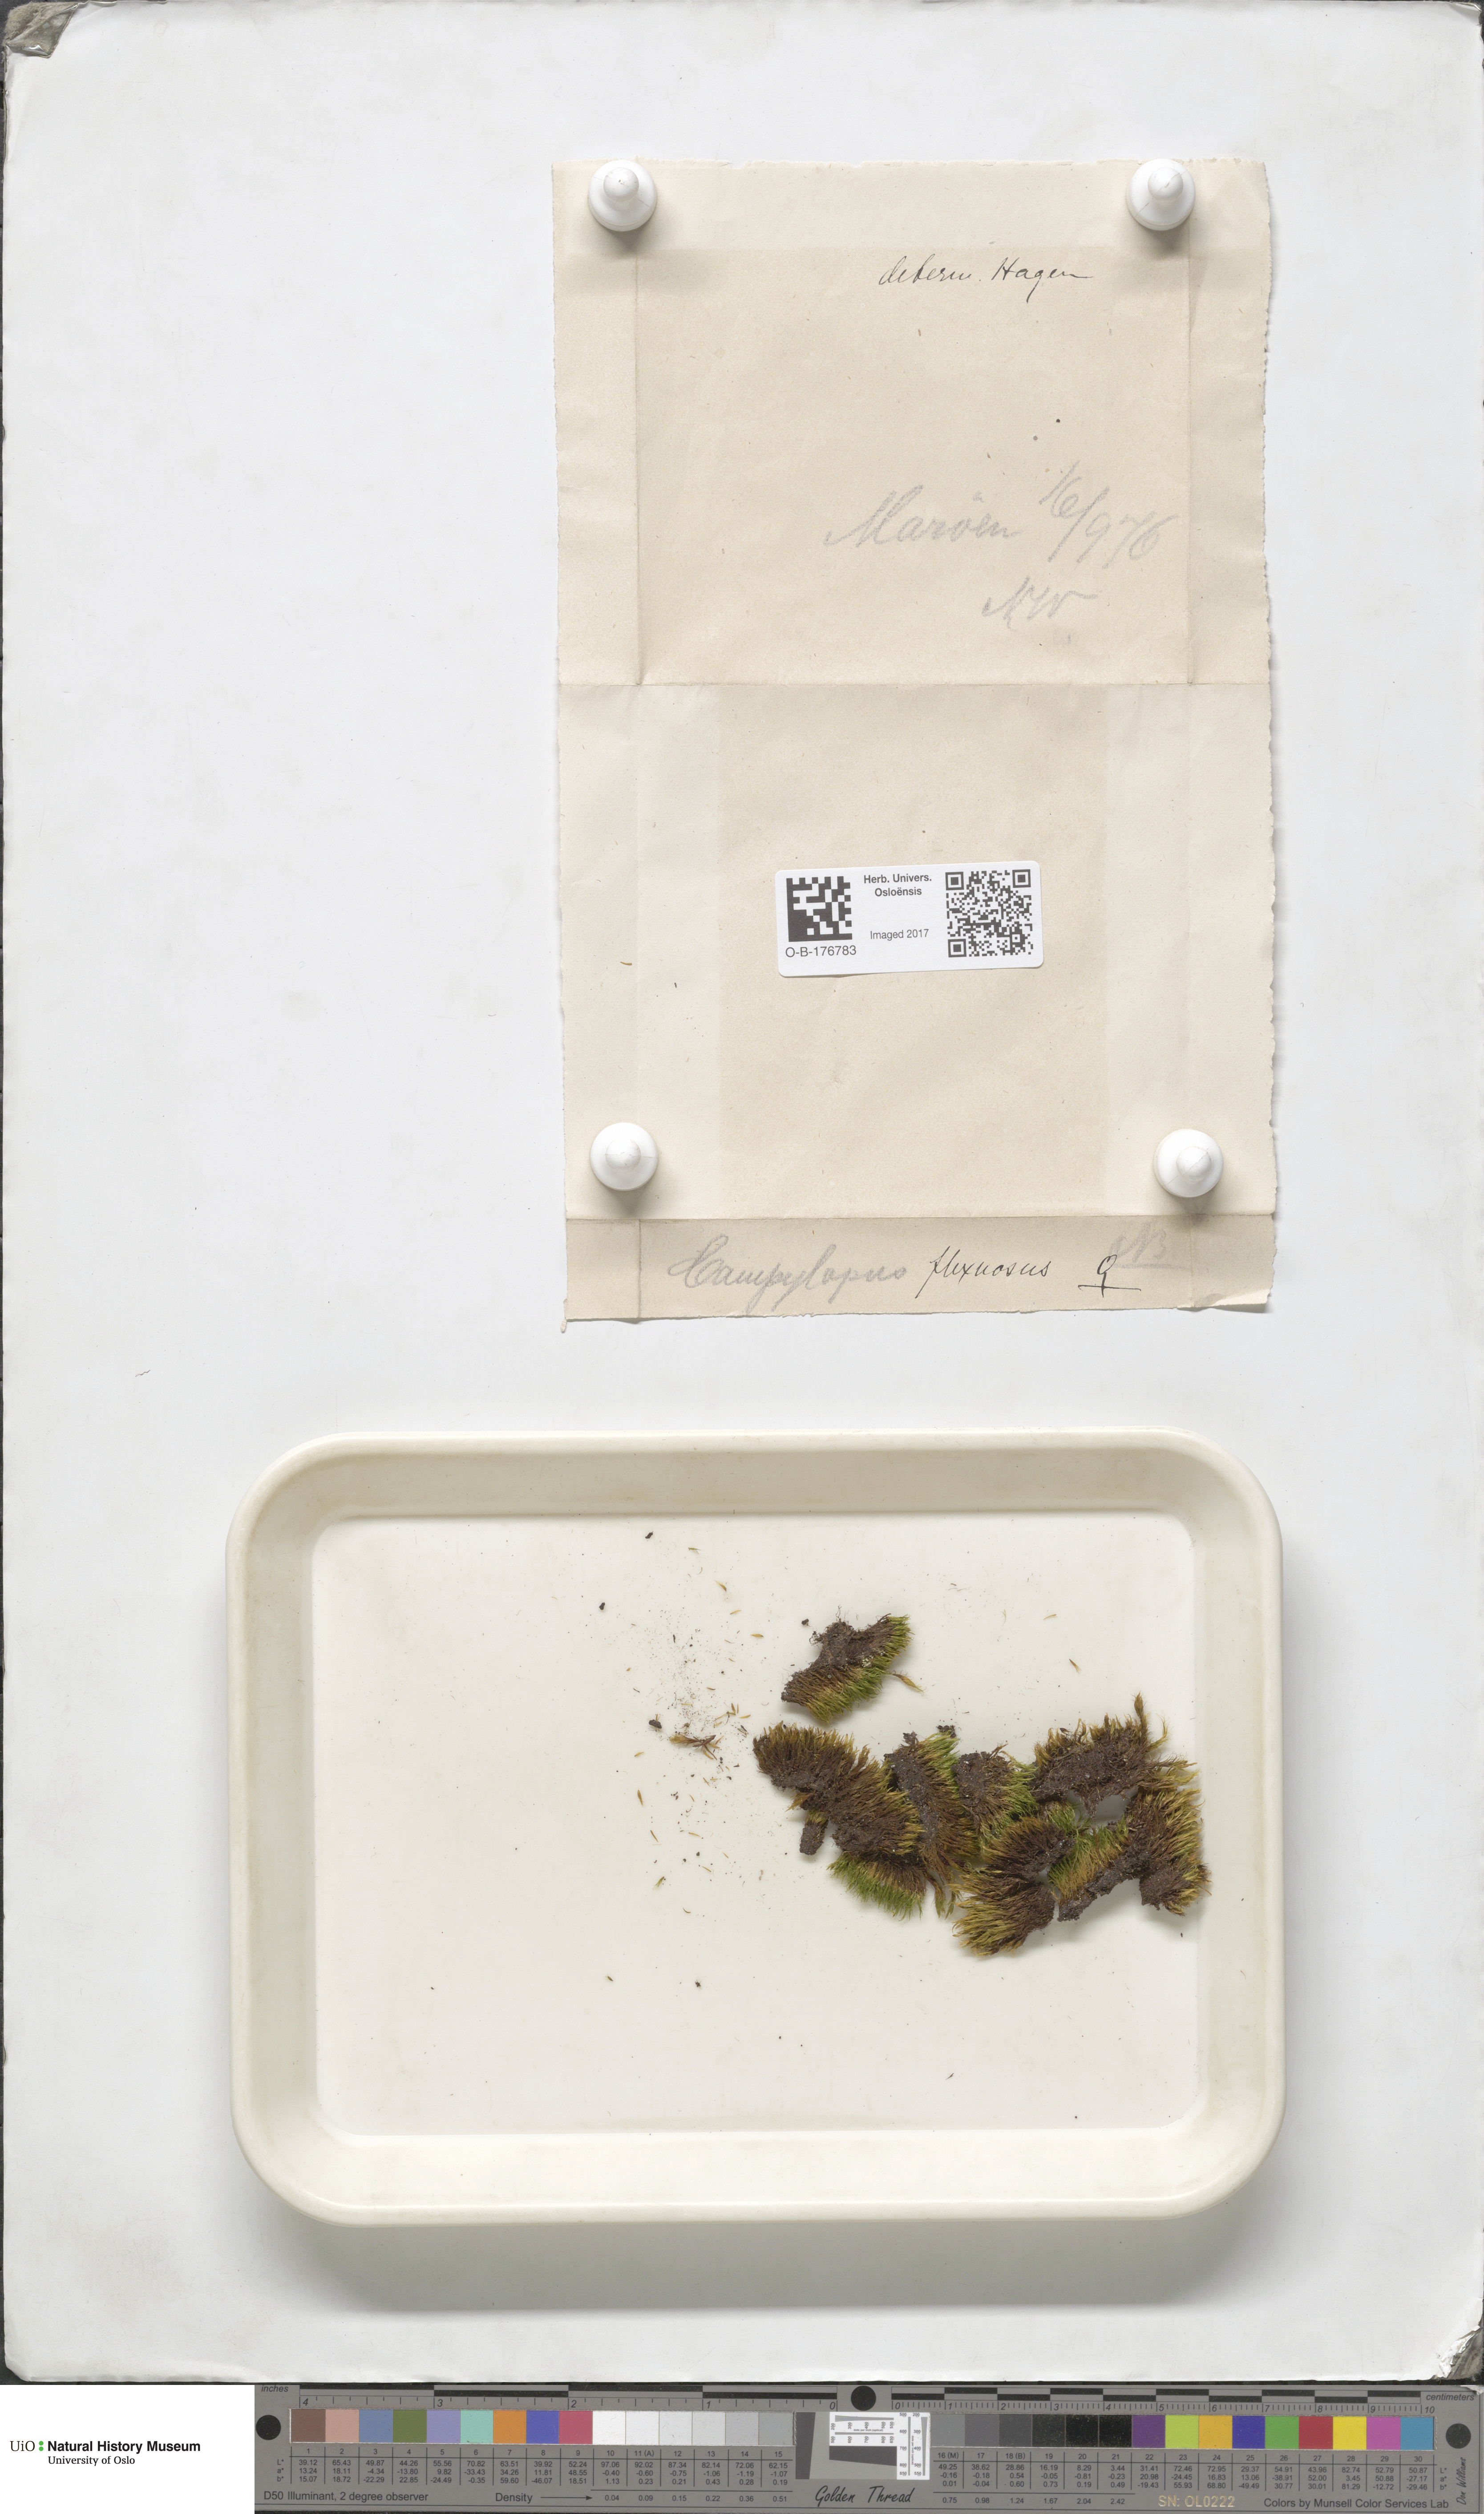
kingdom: Plantae
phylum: Bryophyta
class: Bryopsida
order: Dicranales
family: Leucobryaceae
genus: Campylopus
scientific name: Campylopus flexuosus
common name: Rusty swan-neck moss
